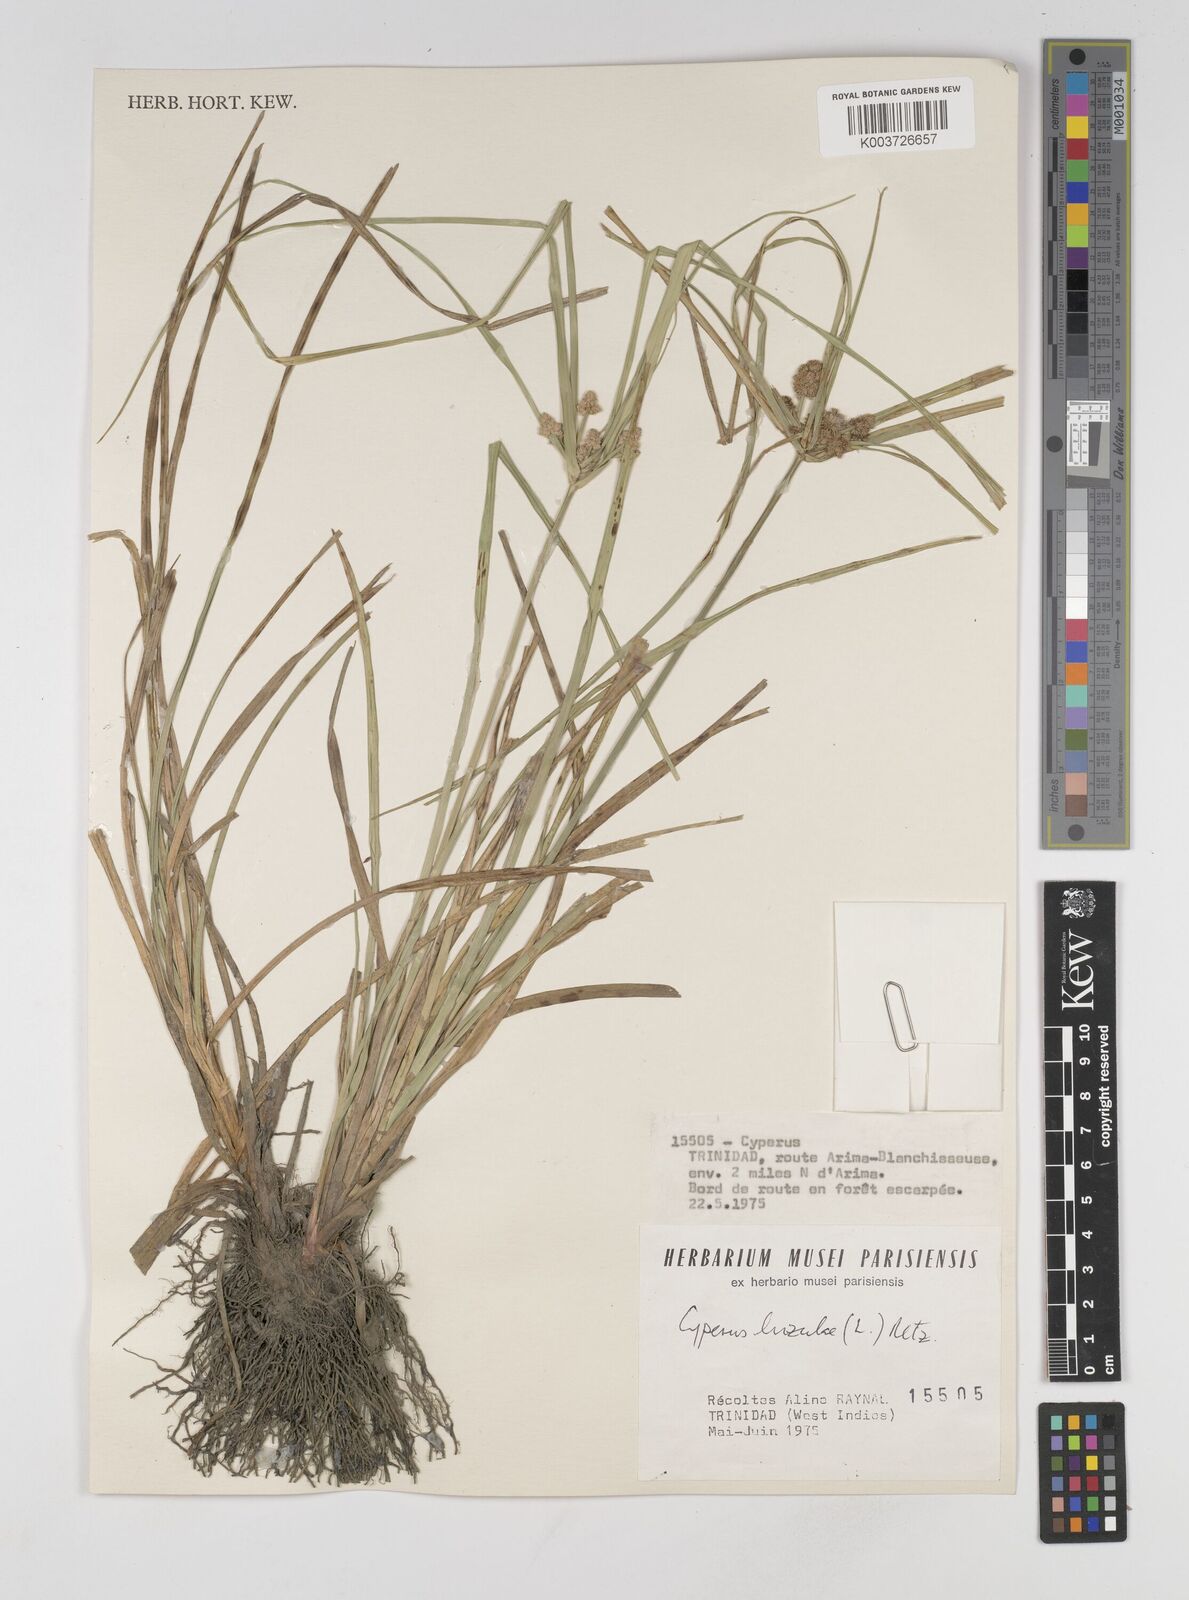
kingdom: Plantae
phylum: Tracheophyta
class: Liliopsida
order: Poales
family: Cyperaceae
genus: Cyperus
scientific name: Cyperus luzulae
